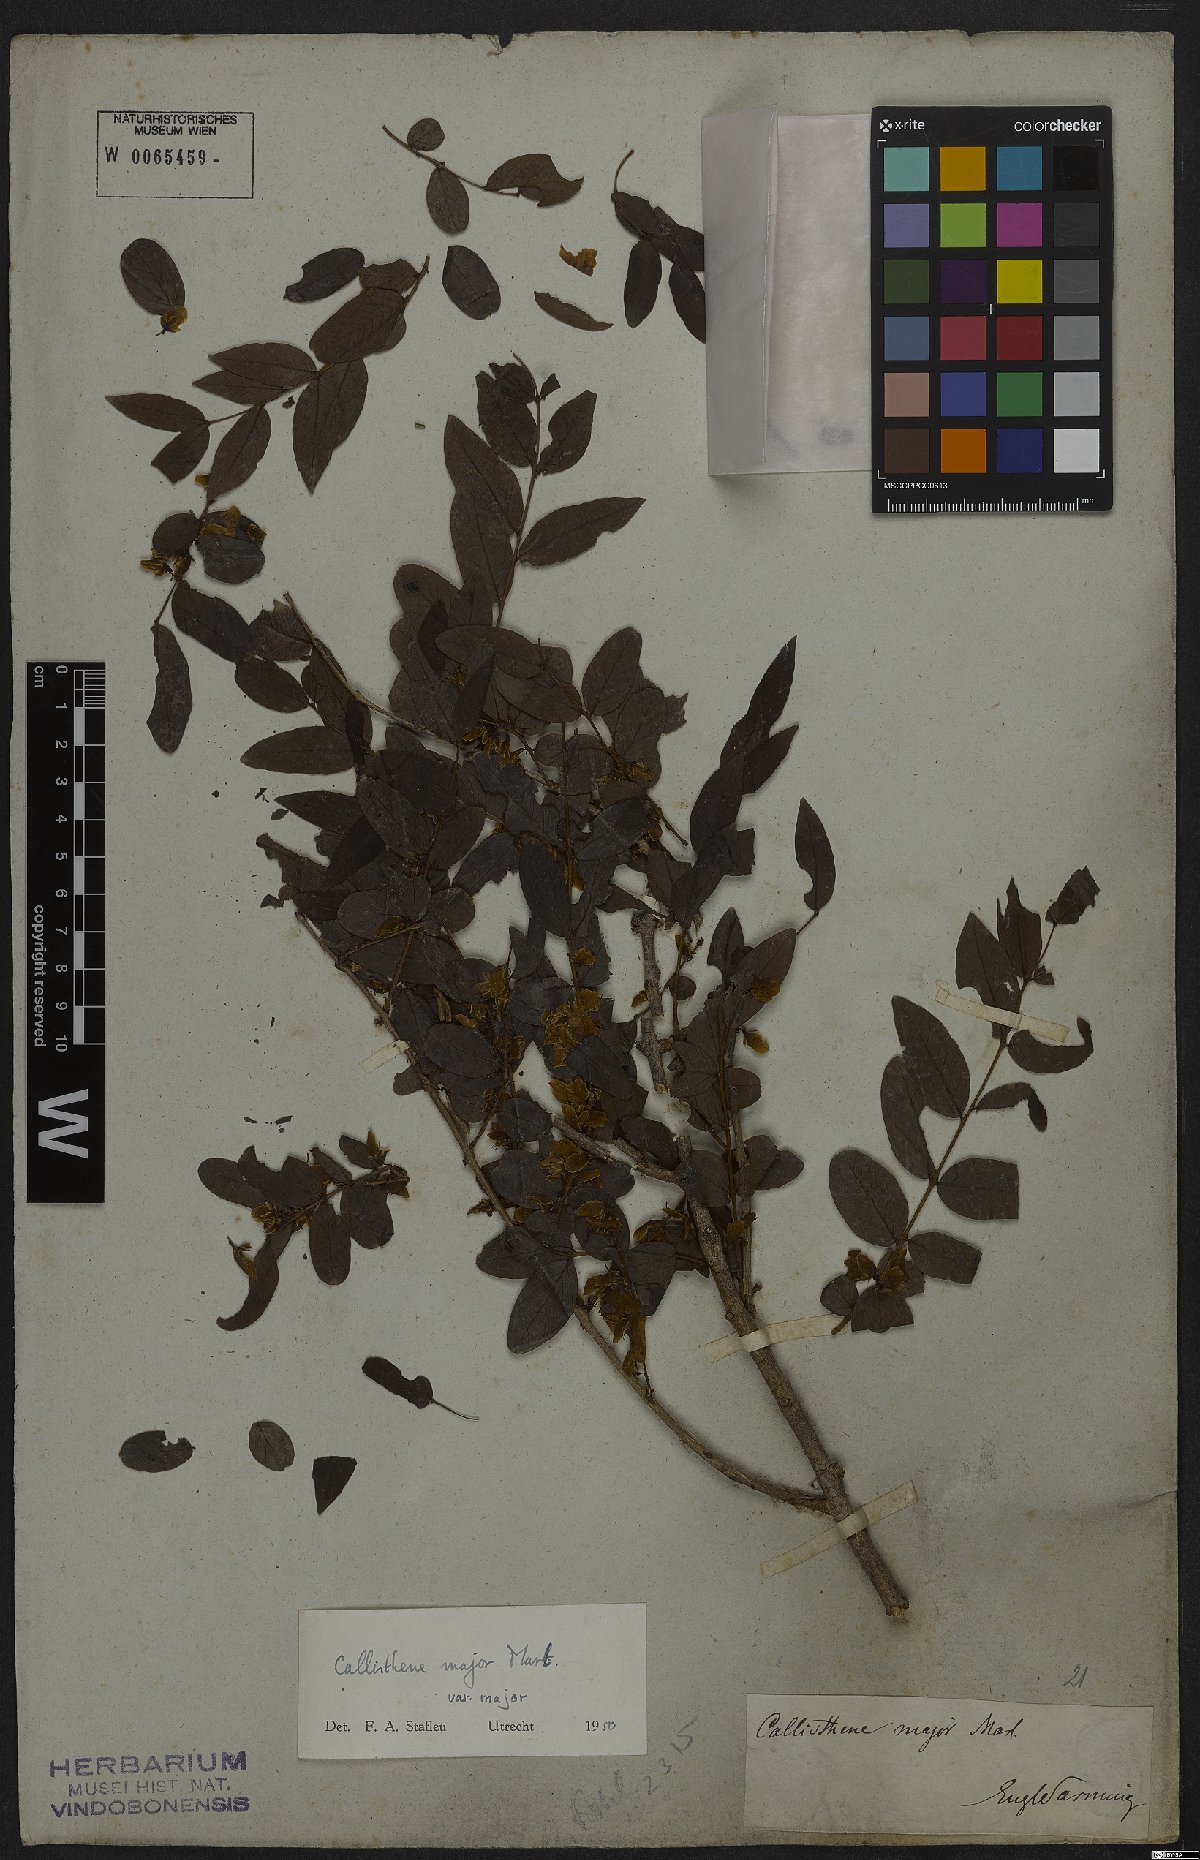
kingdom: Plantae
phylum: Tracheophyta
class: Magnoliopsida
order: Myrtales
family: Vochysiaceae
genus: Callisthene
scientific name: Callisthene major
